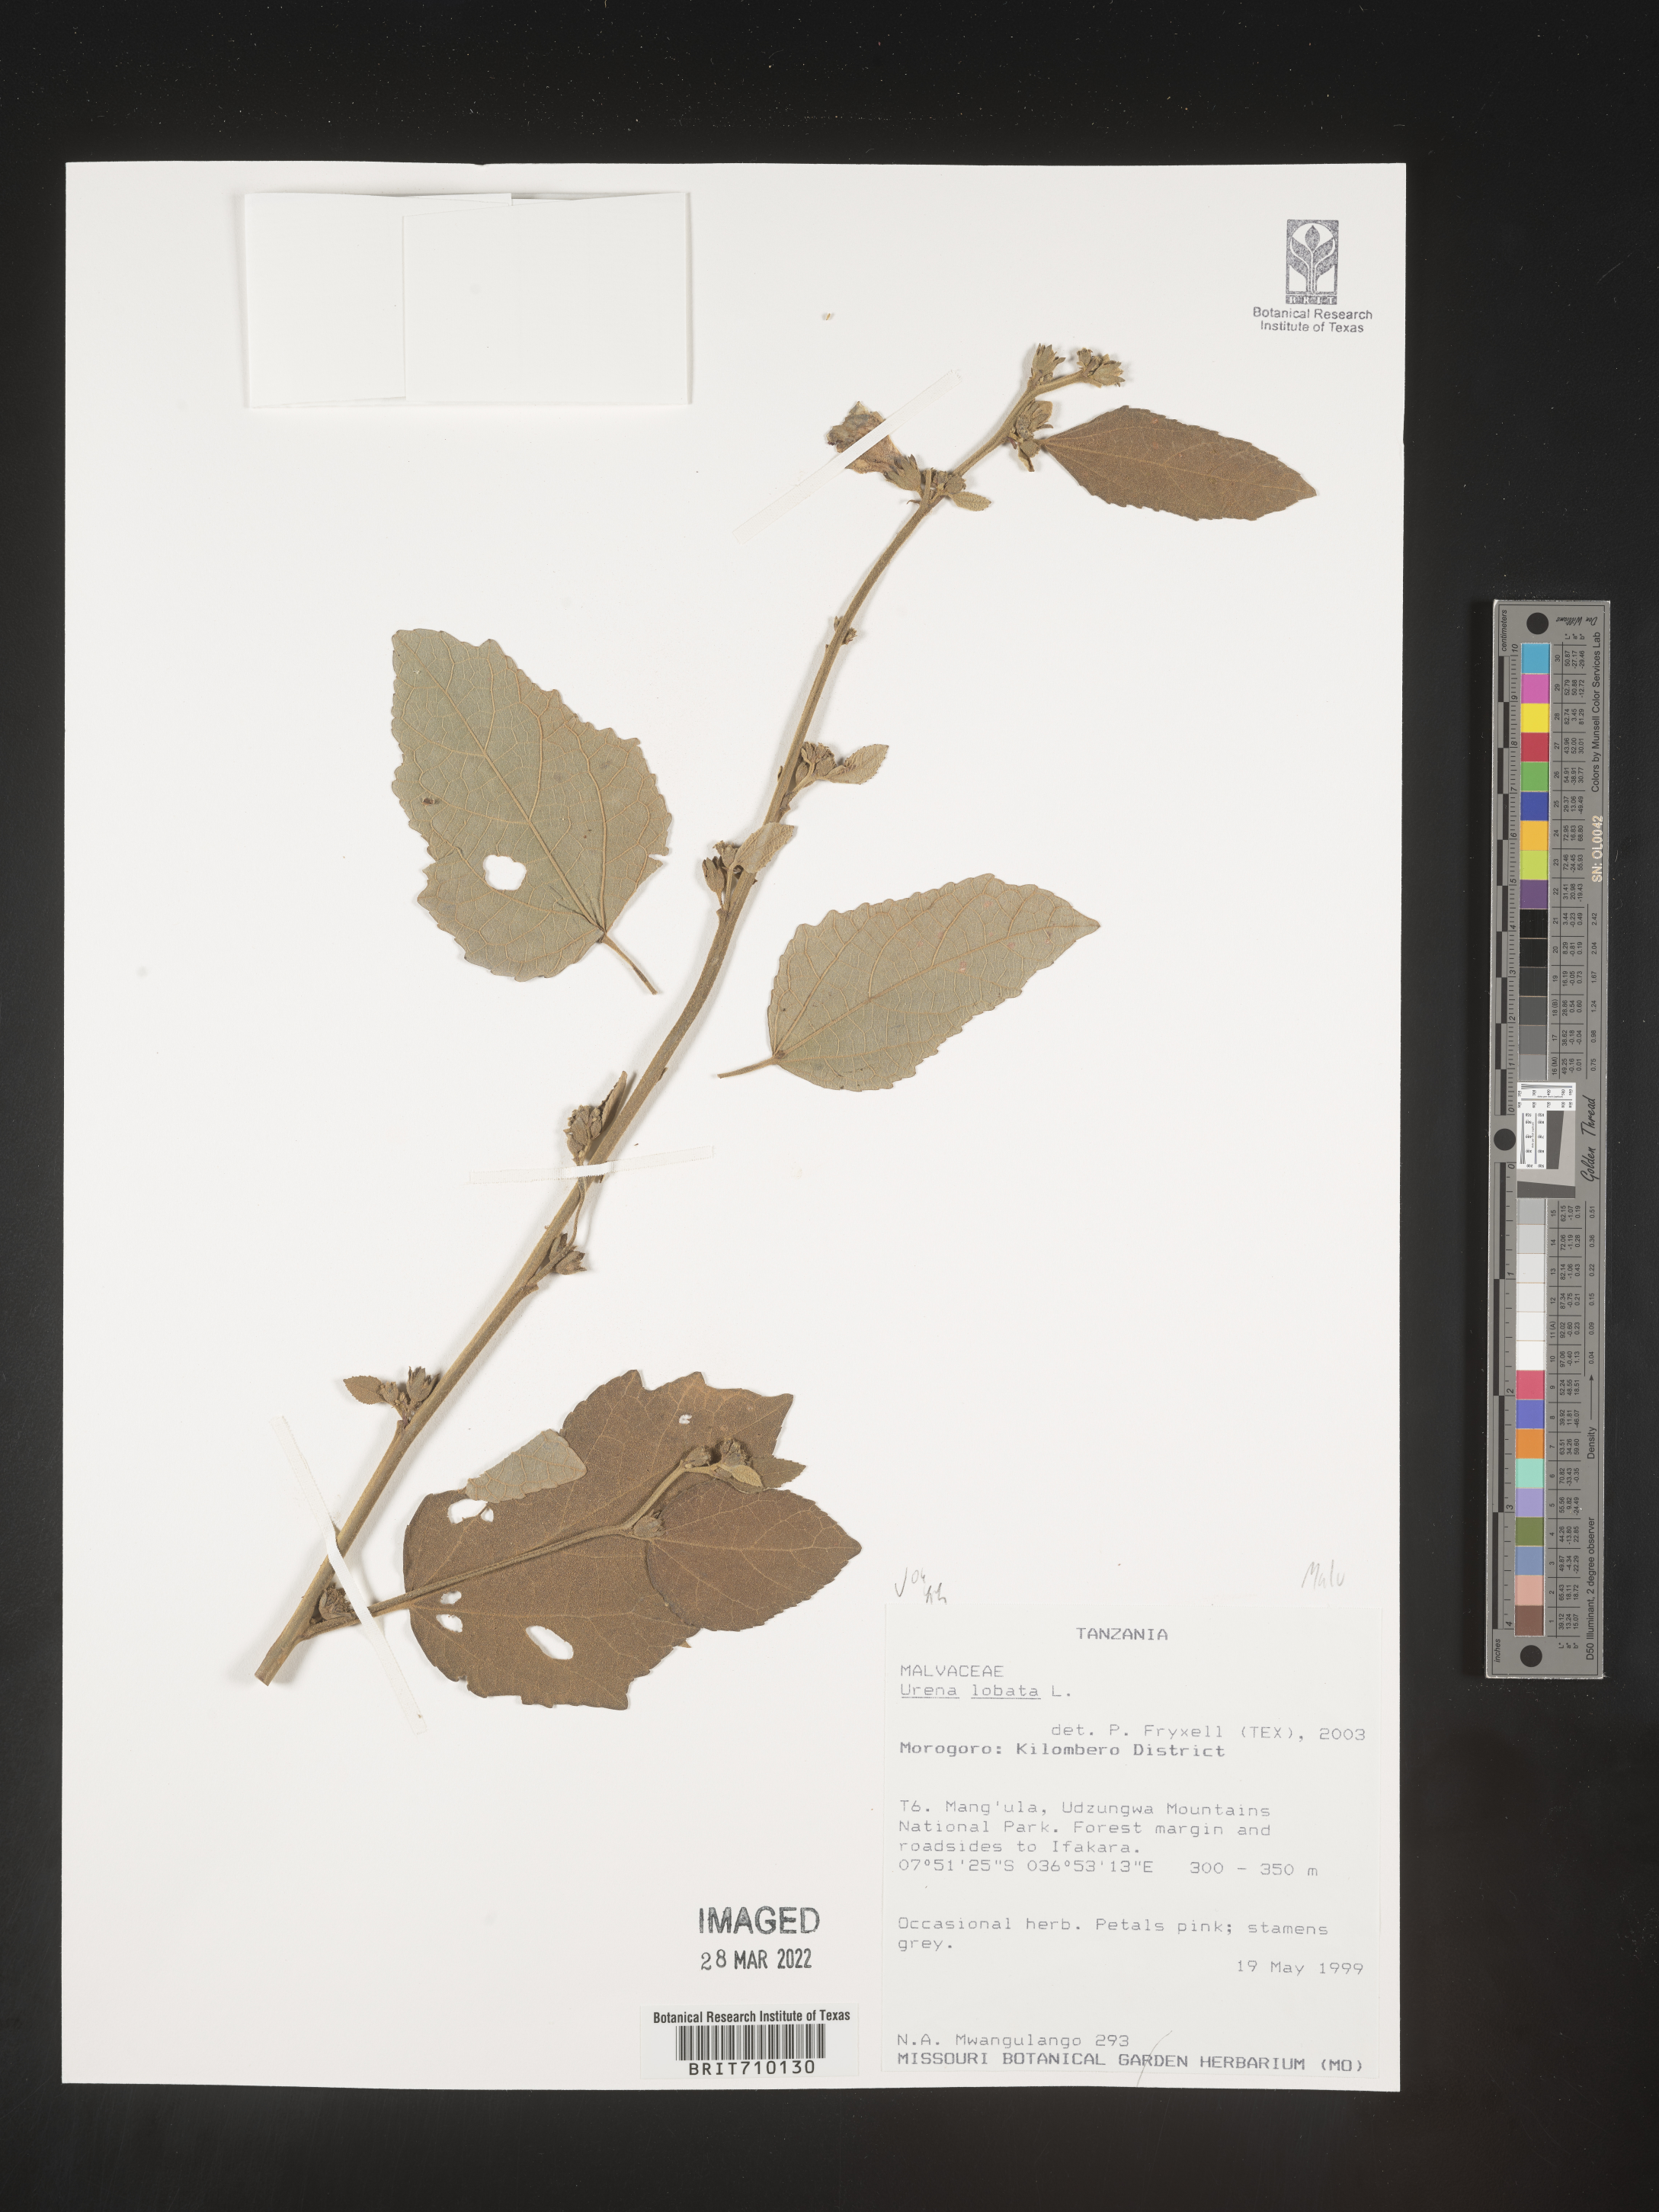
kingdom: Plantae
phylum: Tracheophyta
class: Magnoliopsida
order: Malvales
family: Malvaceae
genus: Urena
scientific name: Urena
